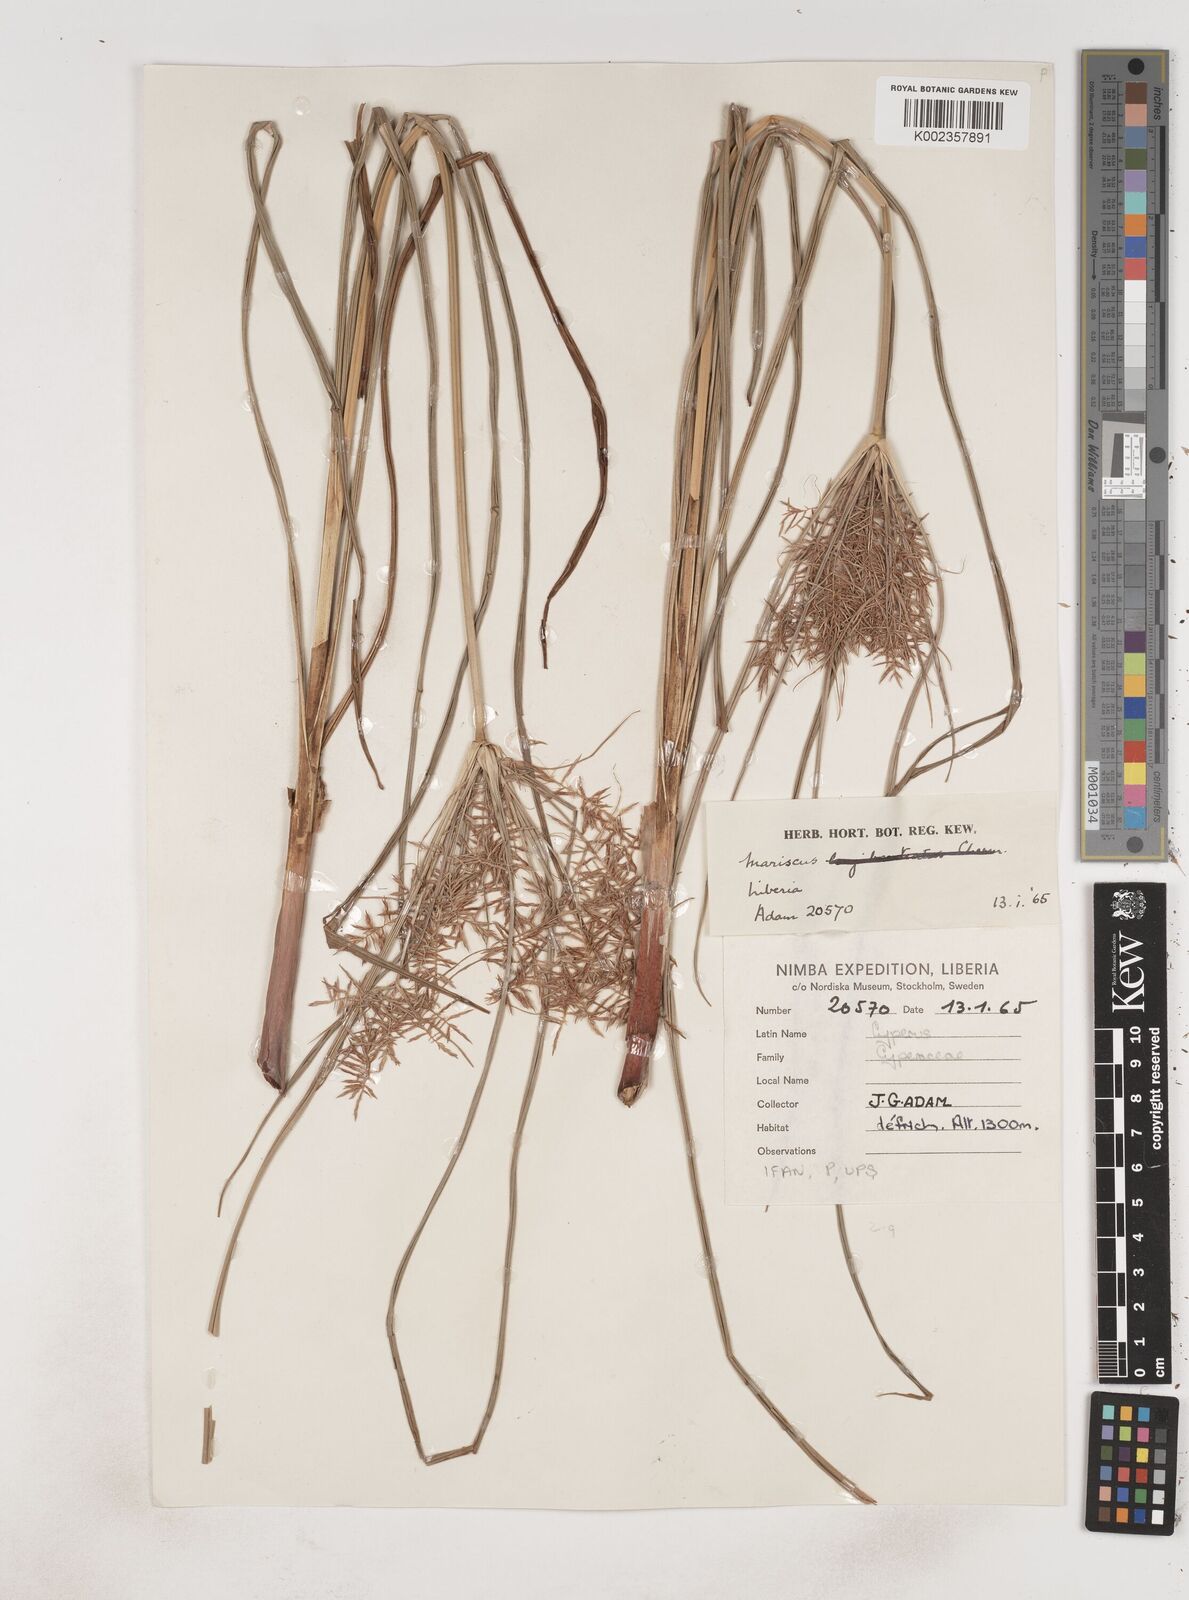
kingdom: Plantae
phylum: Tracheophyta
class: Liliopsida
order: Poales
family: Cyperaceae
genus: Cyperus
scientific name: Cyperus
